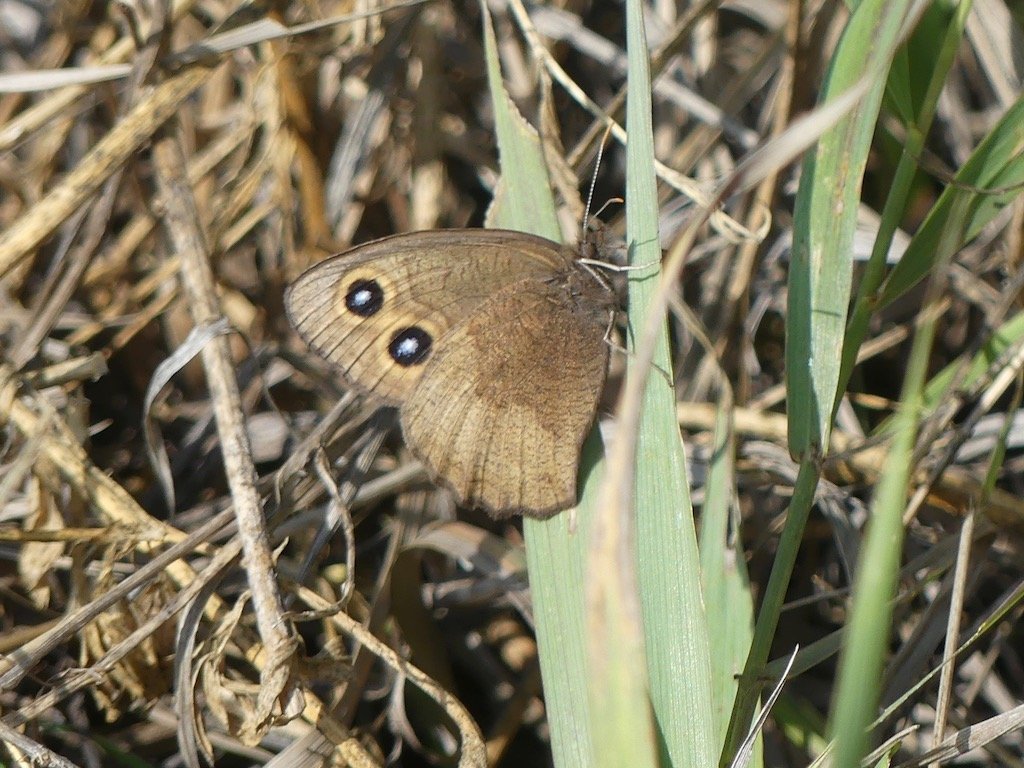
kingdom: Animalia
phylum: Arthropoda
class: Insecta
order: Lepidoptera
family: Nymphalidae
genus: Cercyonis
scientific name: Cercyonis pegala
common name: Common Wood-Nymph
